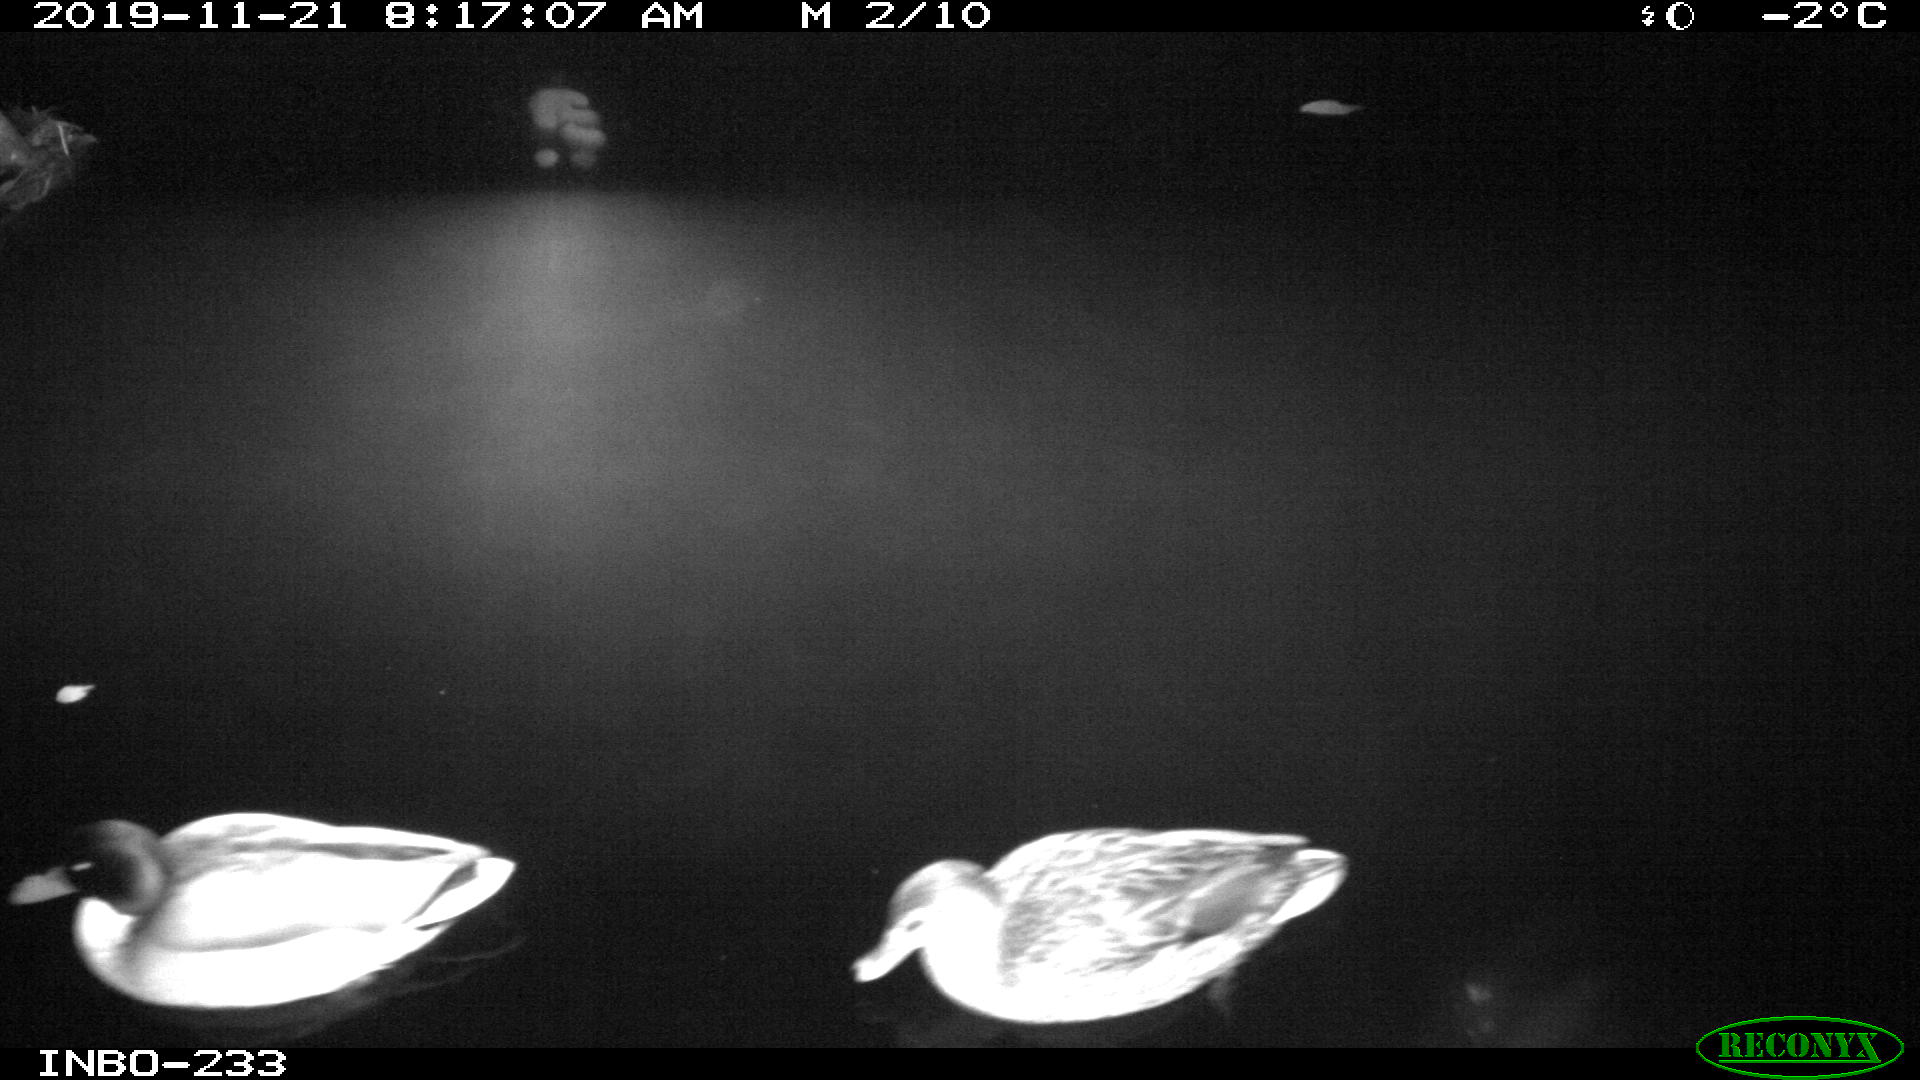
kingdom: Animalia
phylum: Chordata
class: Aves
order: Anseriformes
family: Anatidae
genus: Anas
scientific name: Anas platyrhynchos
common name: Mallard
